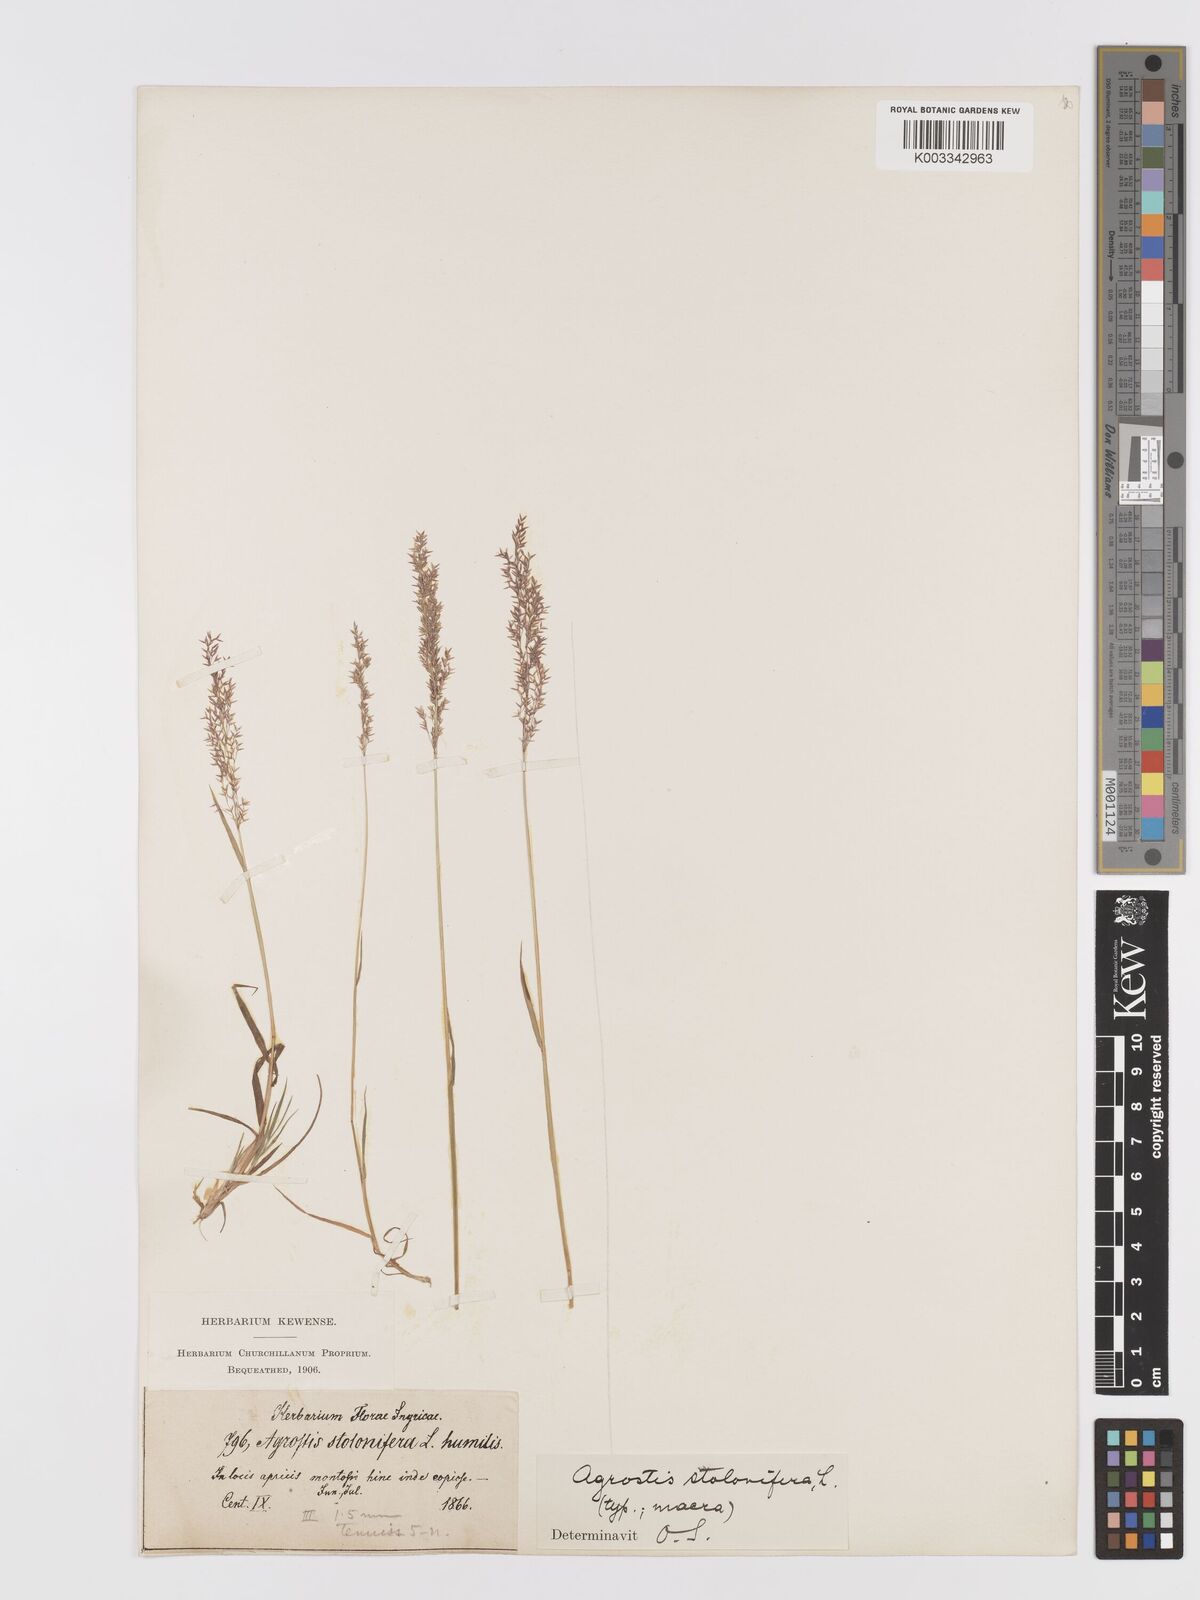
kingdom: Plantae
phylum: Tracheophyta
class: Liliopsida
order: Poales
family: Poaceae
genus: Agrostis
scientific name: Agrostis stolonifera
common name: Creeping bentgrass
